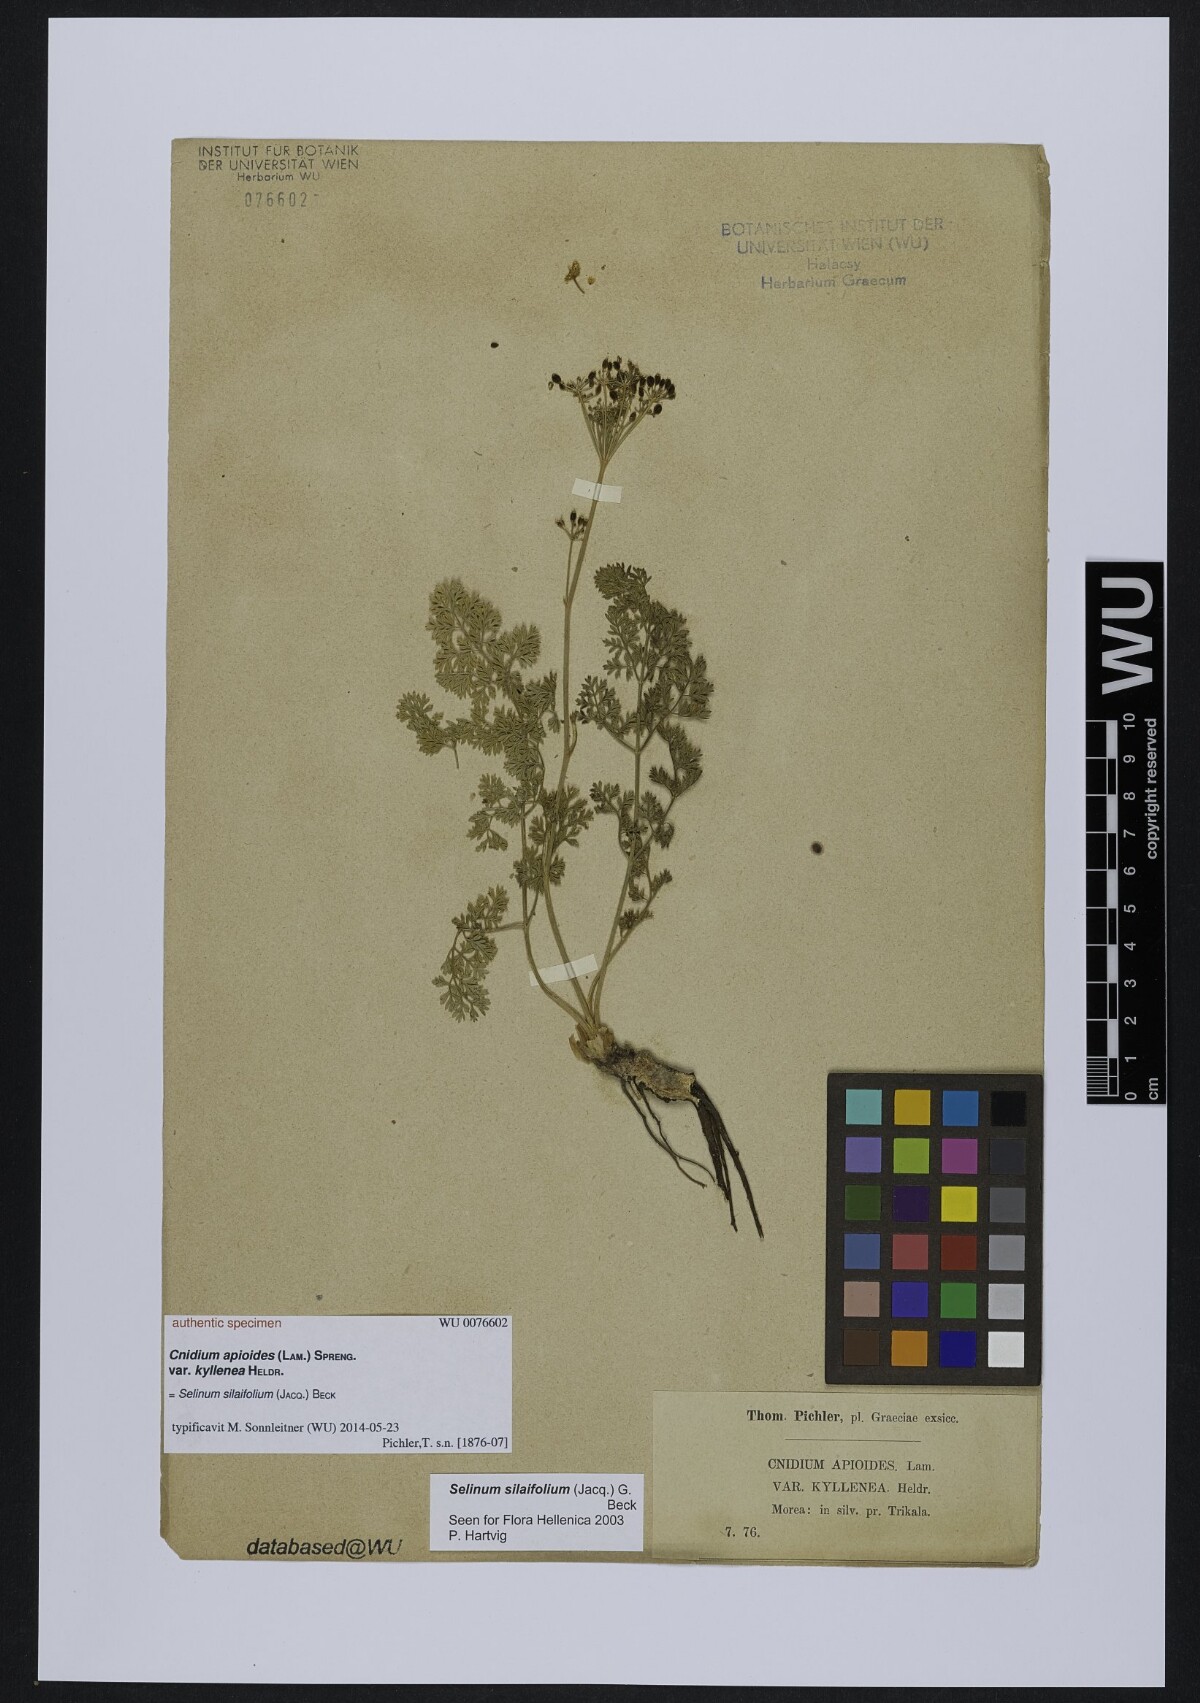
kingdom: Plantae
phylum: Tracheophyta
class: Magnoliopsida
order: Apiales
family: Apiaceae
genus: Katapsuxis
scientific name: Katapsuxis silaifolia
